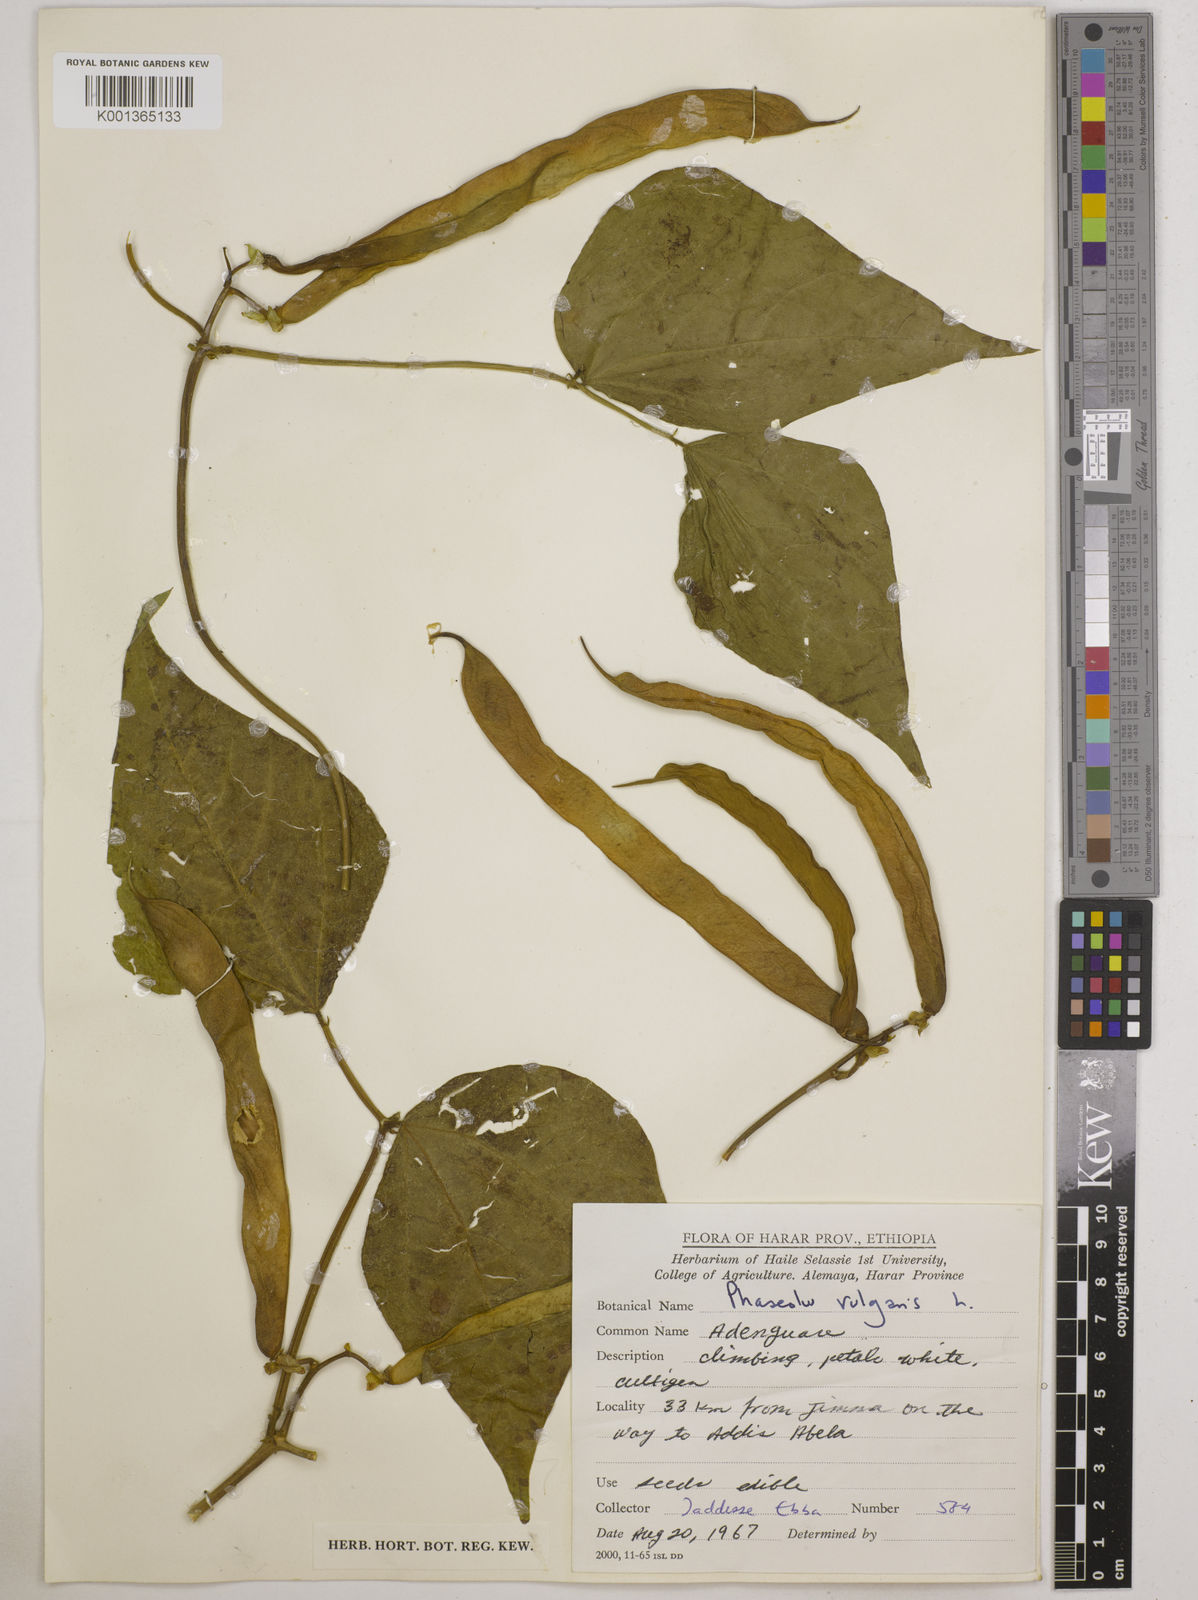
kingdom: Plantae
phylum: Tracheophyta
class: Magnoliopsida
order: Fabales
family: Fabaceae
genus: Phaseolus
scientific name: Phaseolus vulgaris
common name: Bean
